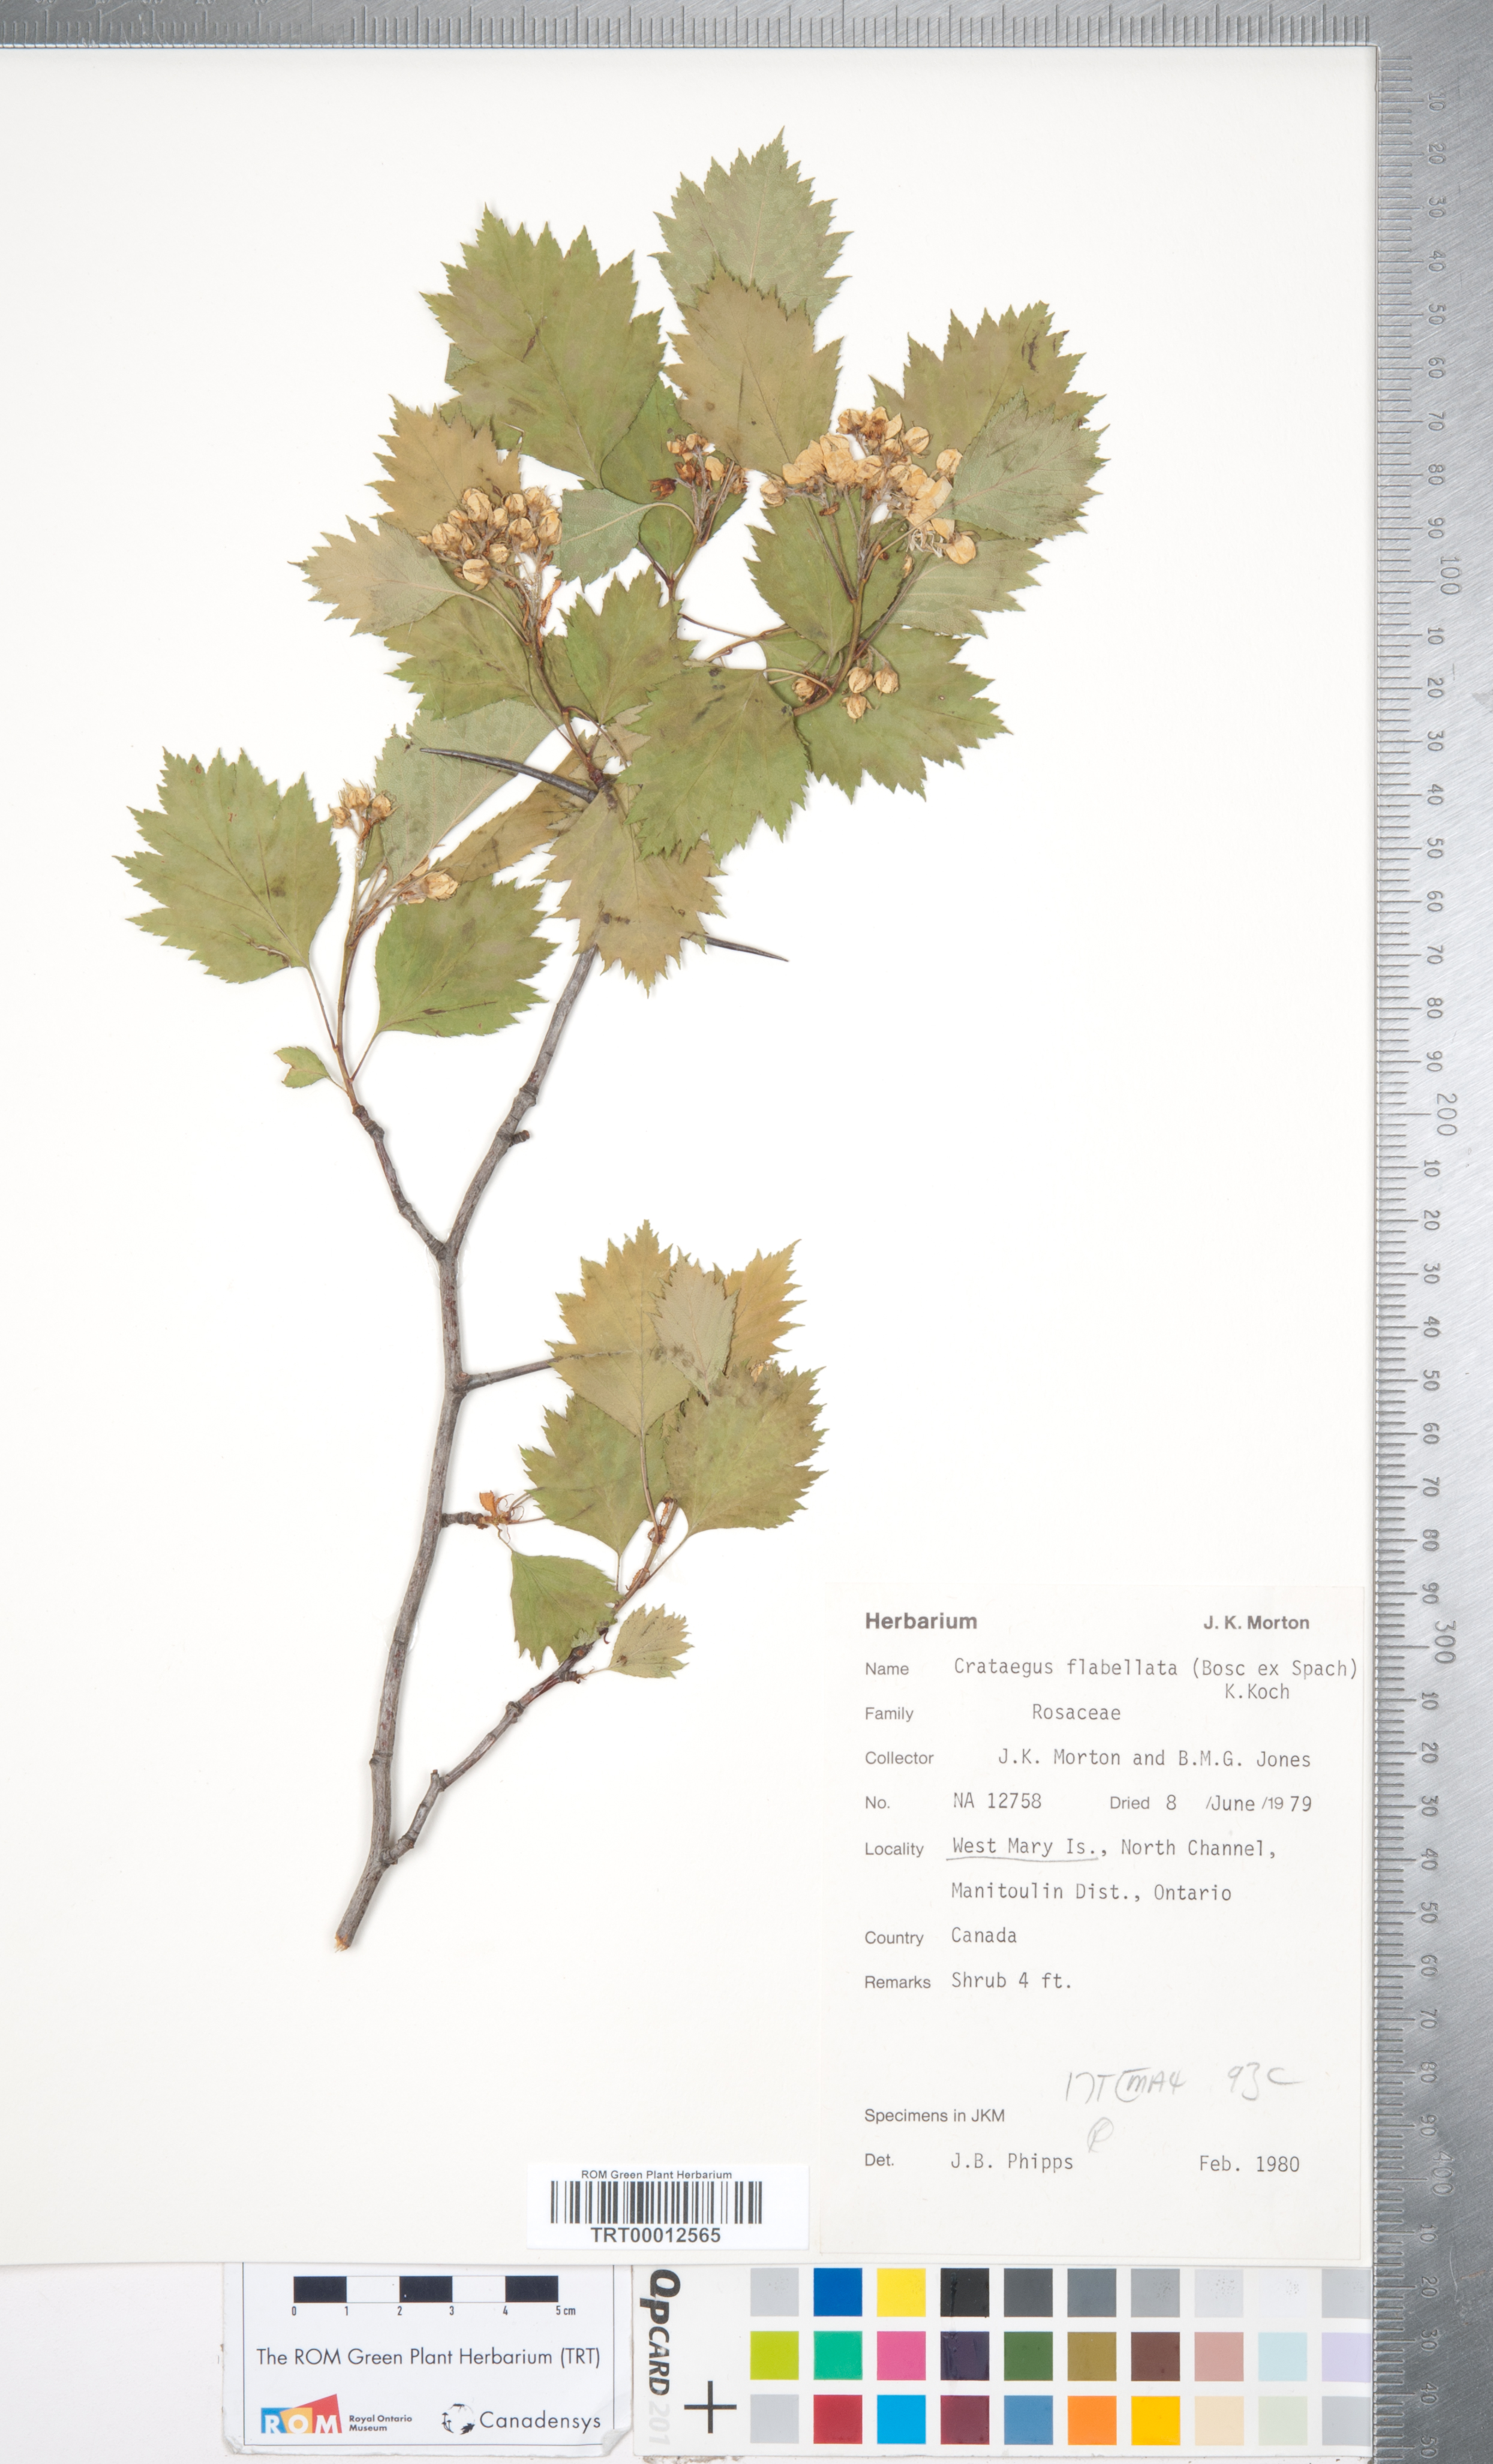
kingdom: Plantae
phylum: Tracheophyta
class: Magnoliopsida
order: Rosales
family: Rosaceae
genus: Crataegus
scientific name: Crataegus flabellata
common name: Bosc's hawthorn
